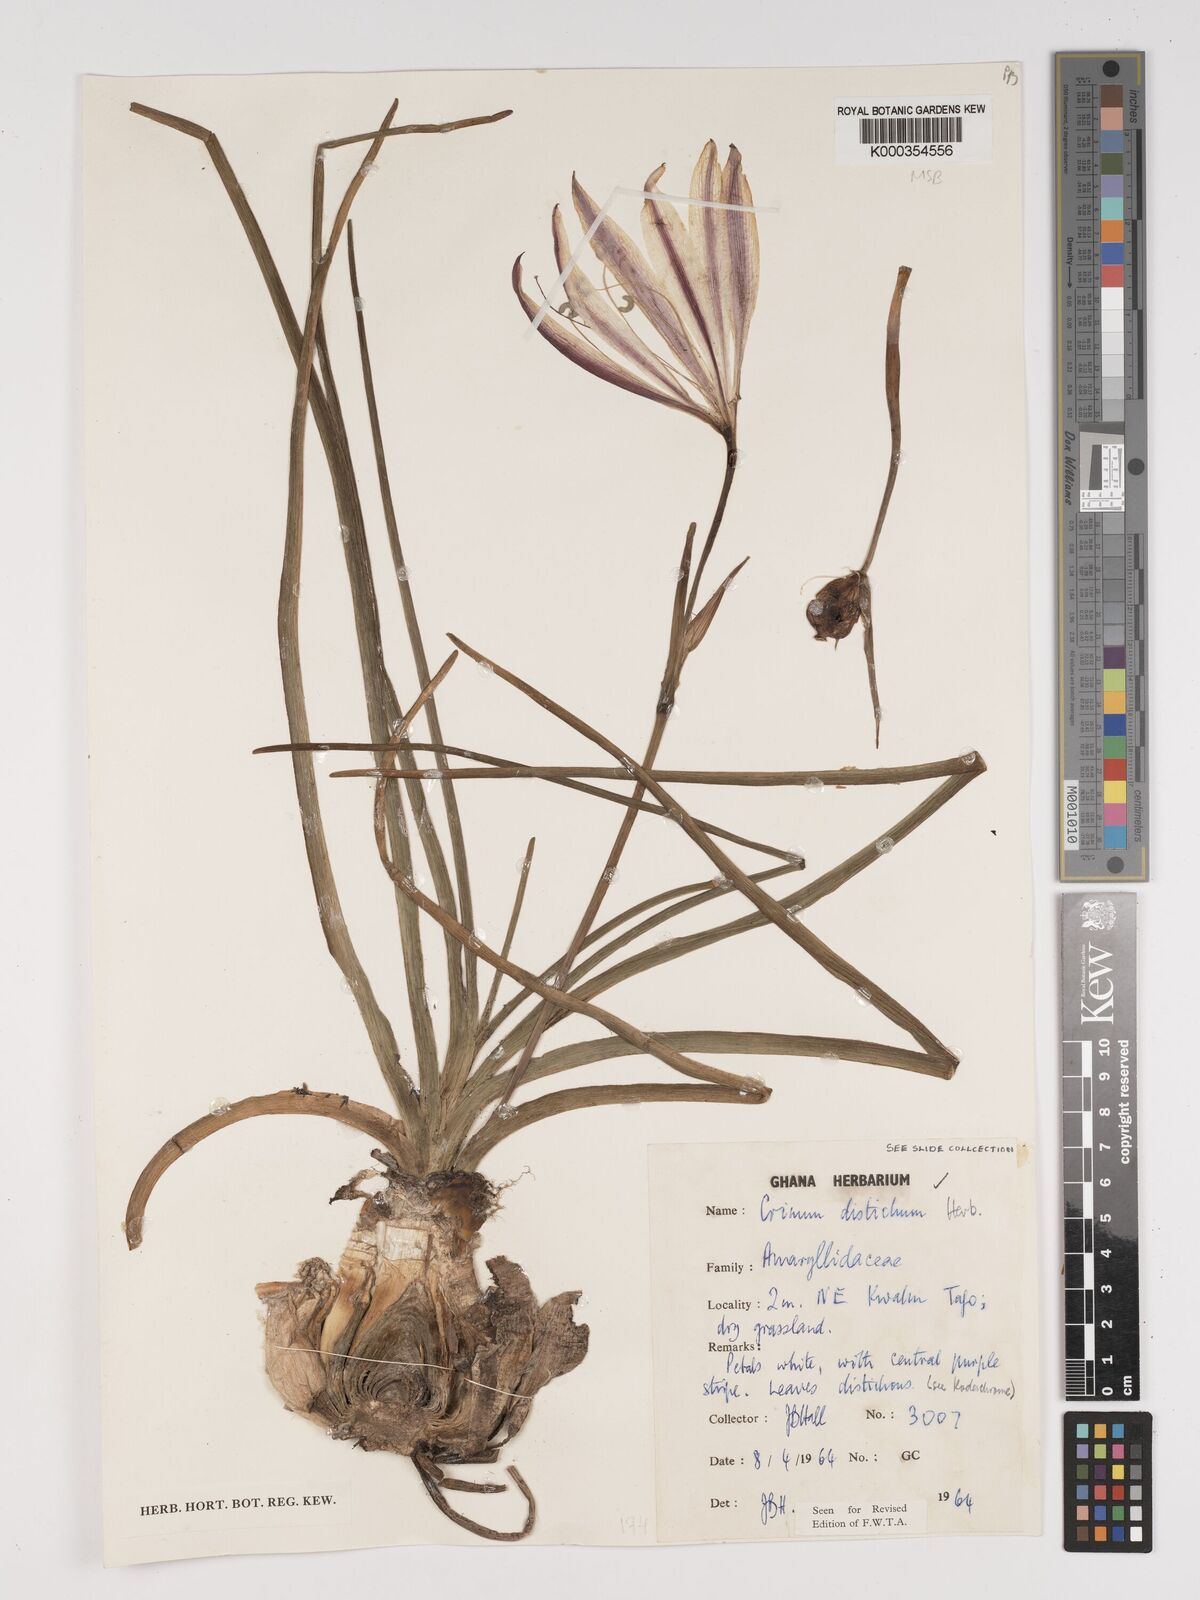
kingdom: Plantae
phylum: Tracheophyta
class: Liliopsida
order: Asparagales
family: Amaryllidaceae
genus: Crinum
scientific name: Crinum zeylanicum
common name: Ceylon swamplily
